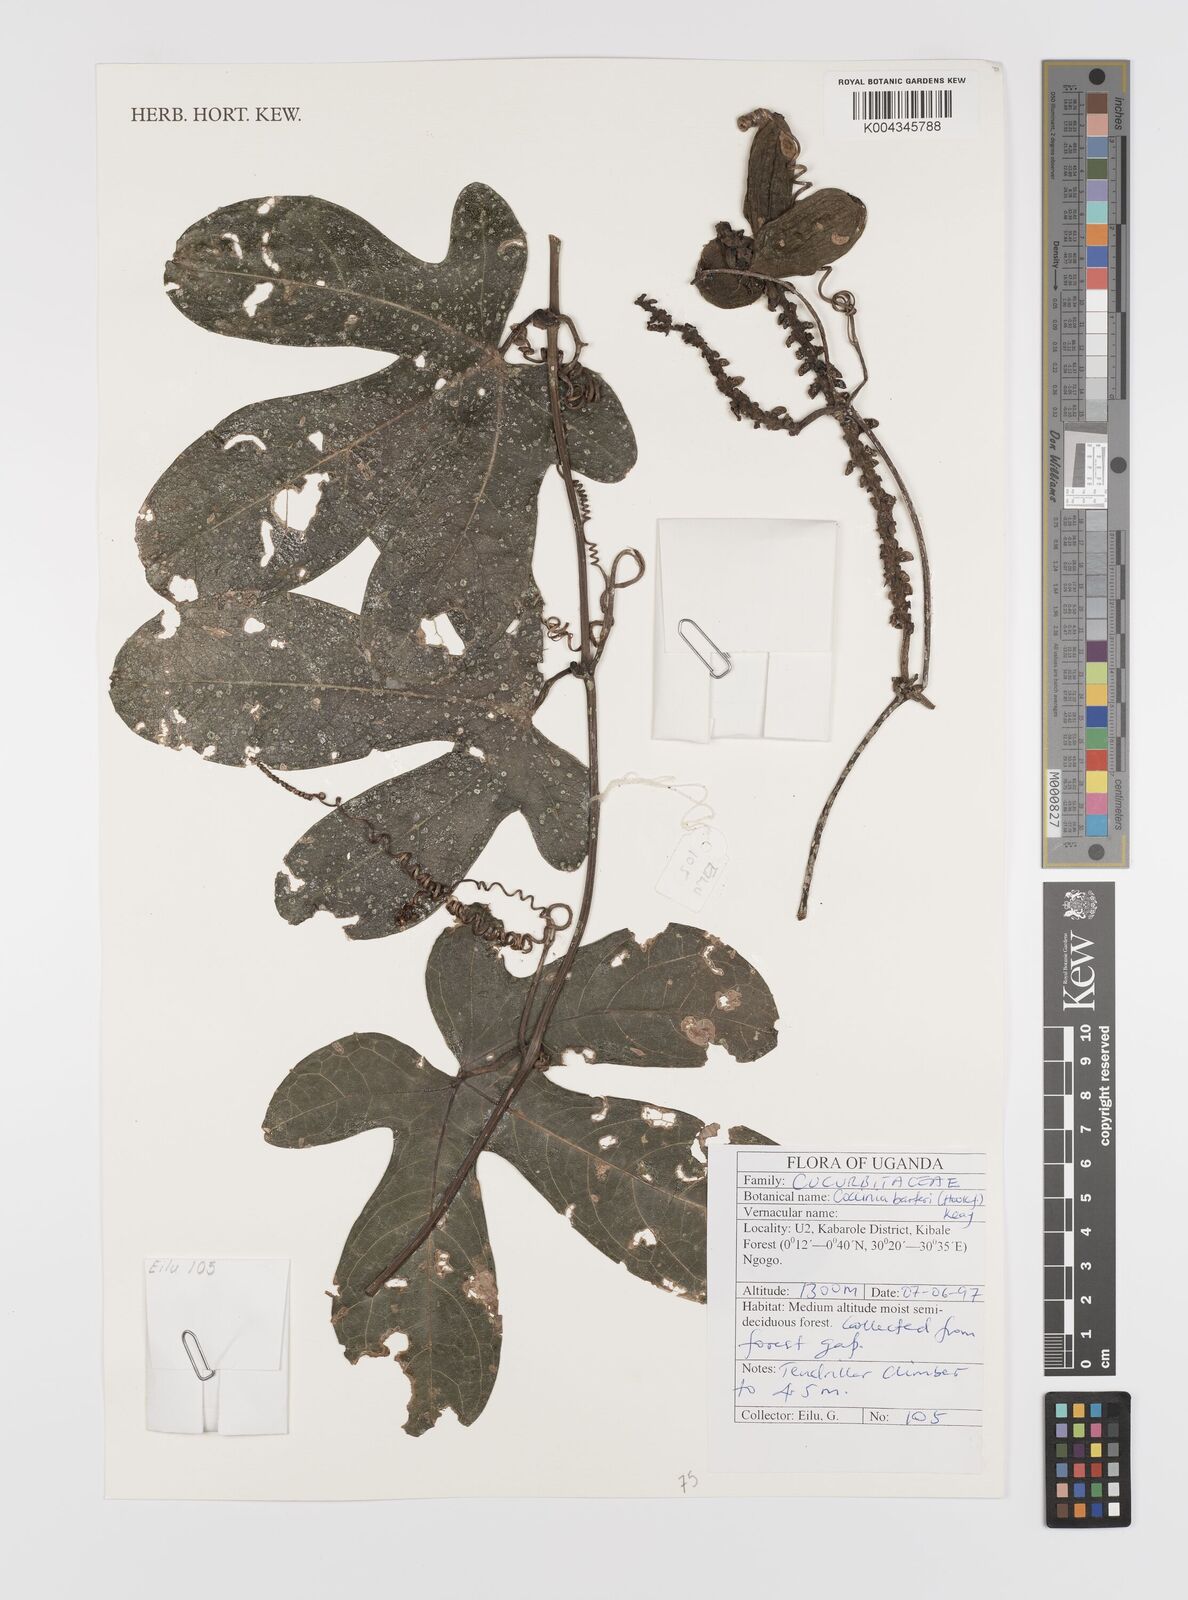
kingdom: Plantae
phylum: Tracheophyta
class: Magnoliopsida
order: Cucurbitales
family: Cucurbitaceae
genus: Coccinia
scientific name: Coccinia barteri
